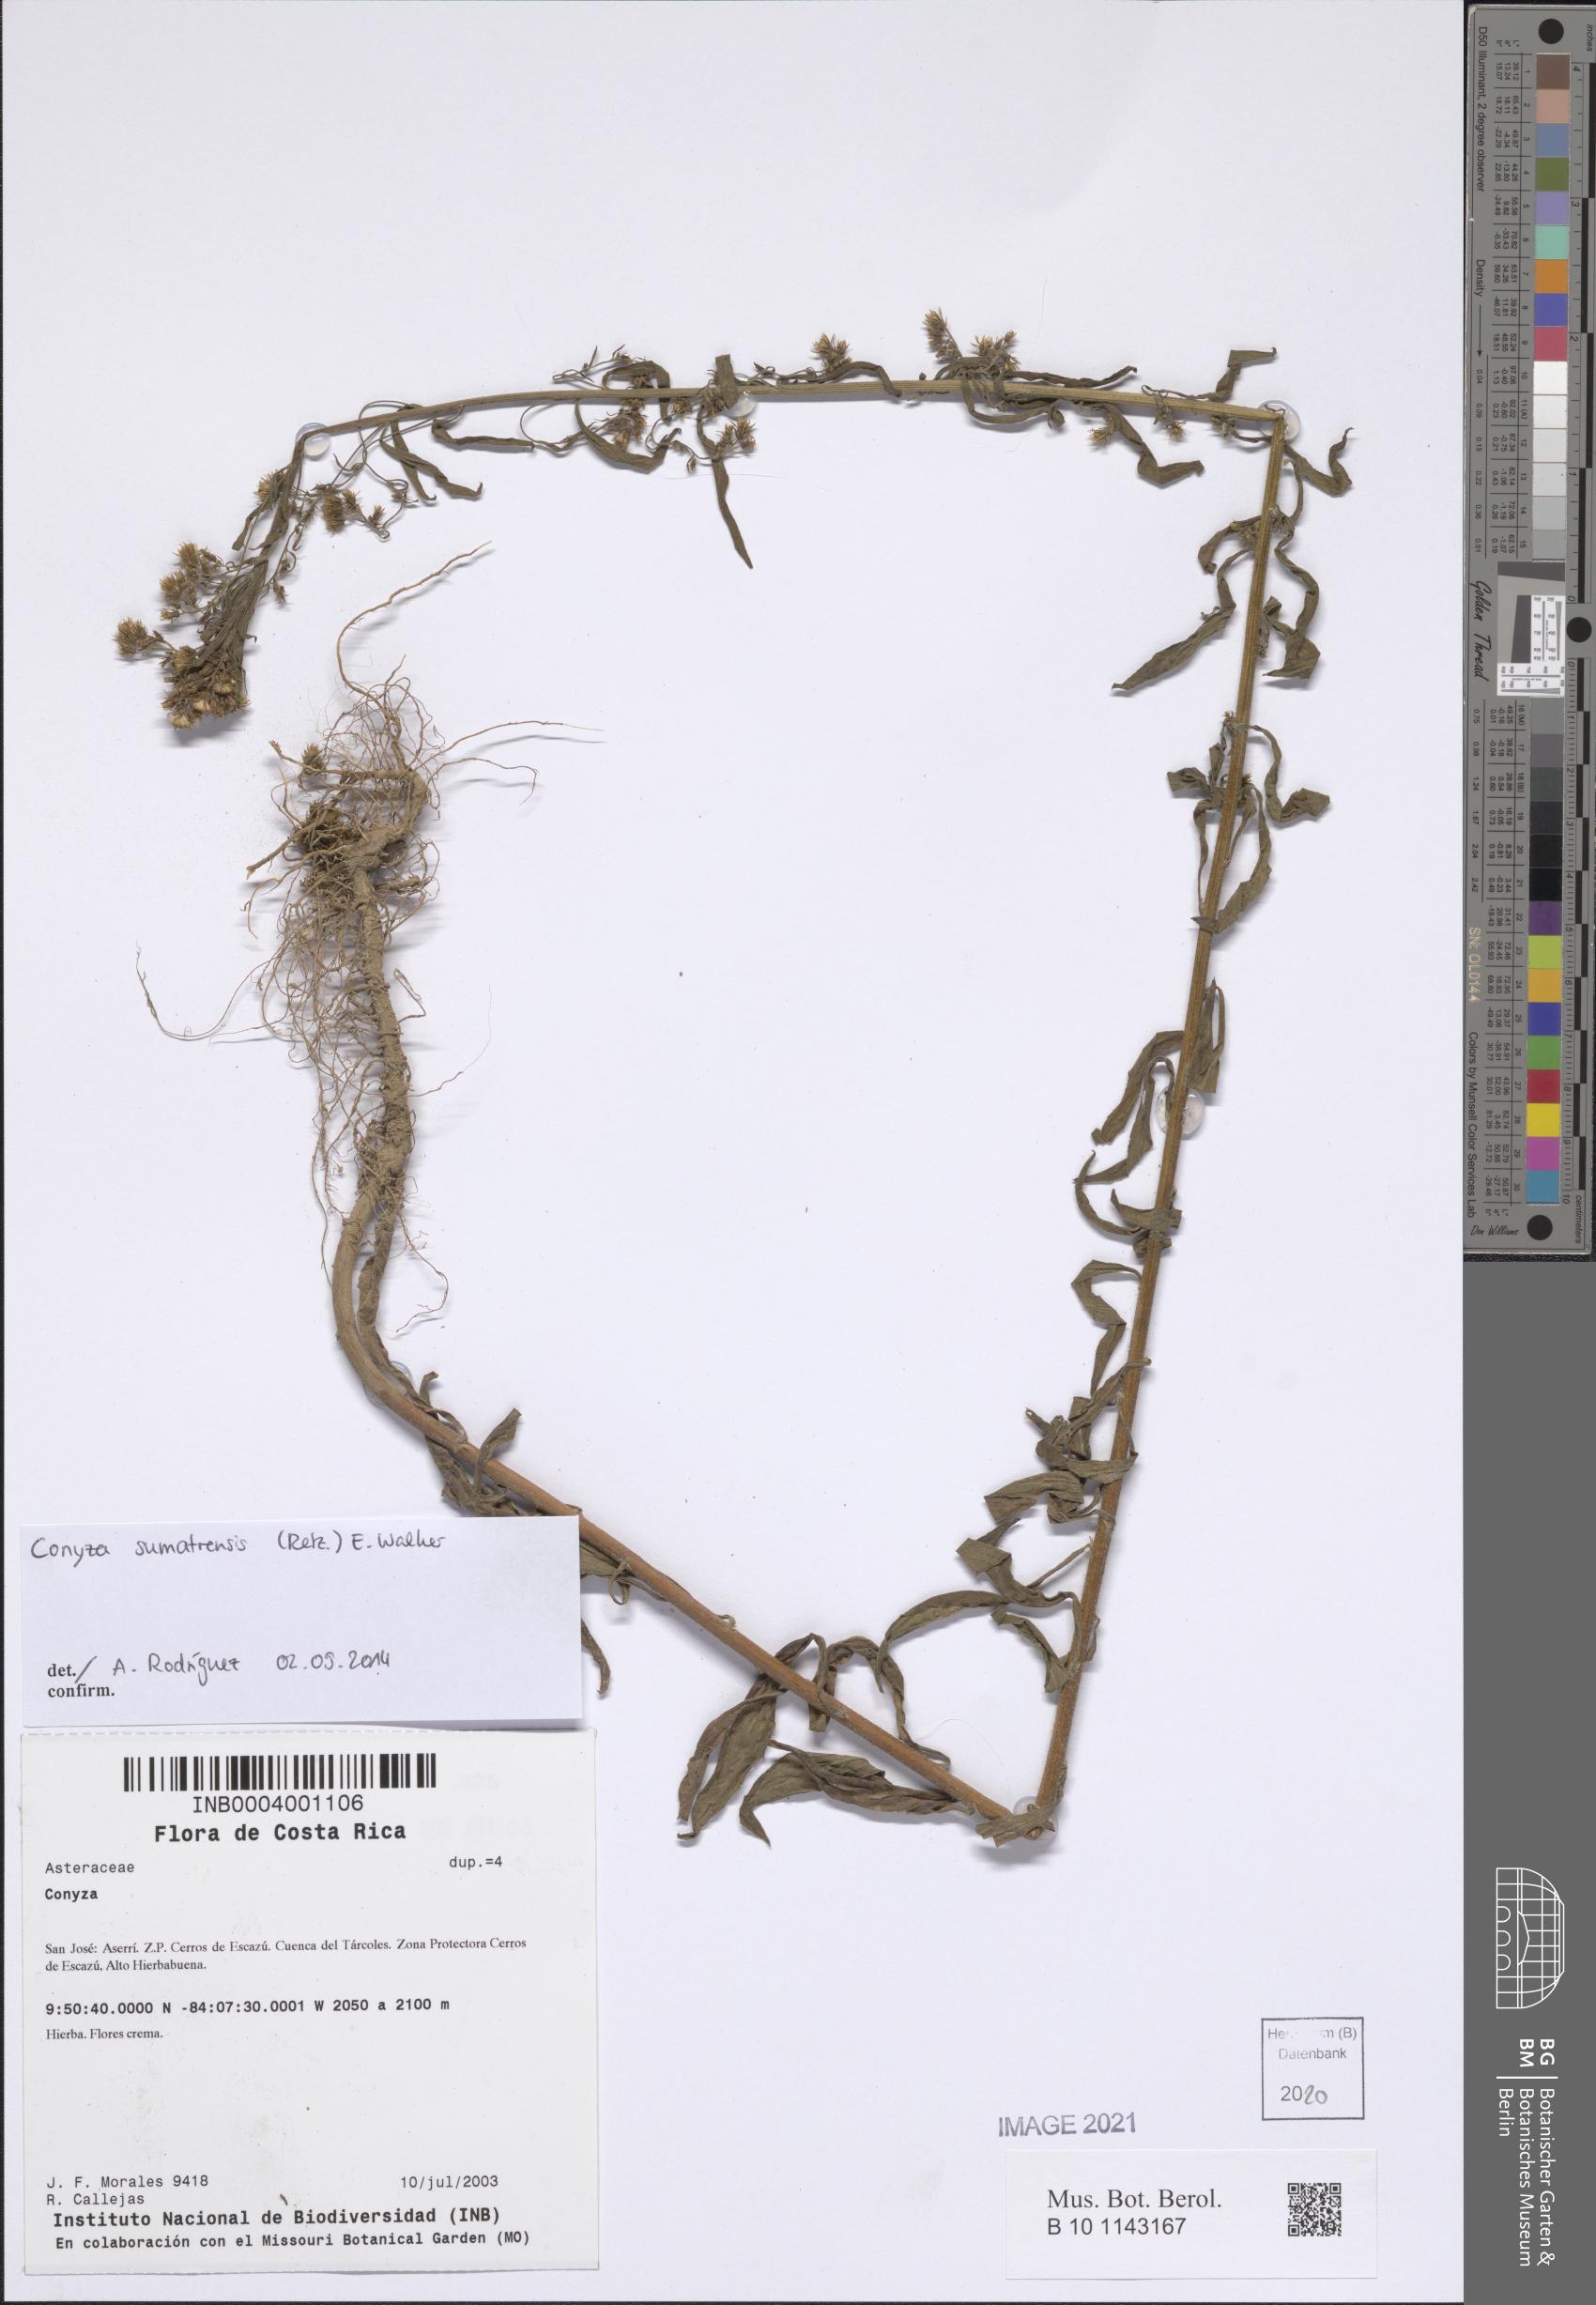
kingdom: Plantae
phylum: Tracheophyta
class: Magnoliopsida
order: Asterales
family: Asteraceae
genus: Erigeron
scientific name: Erigeron sumatrensis
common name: Daisy
